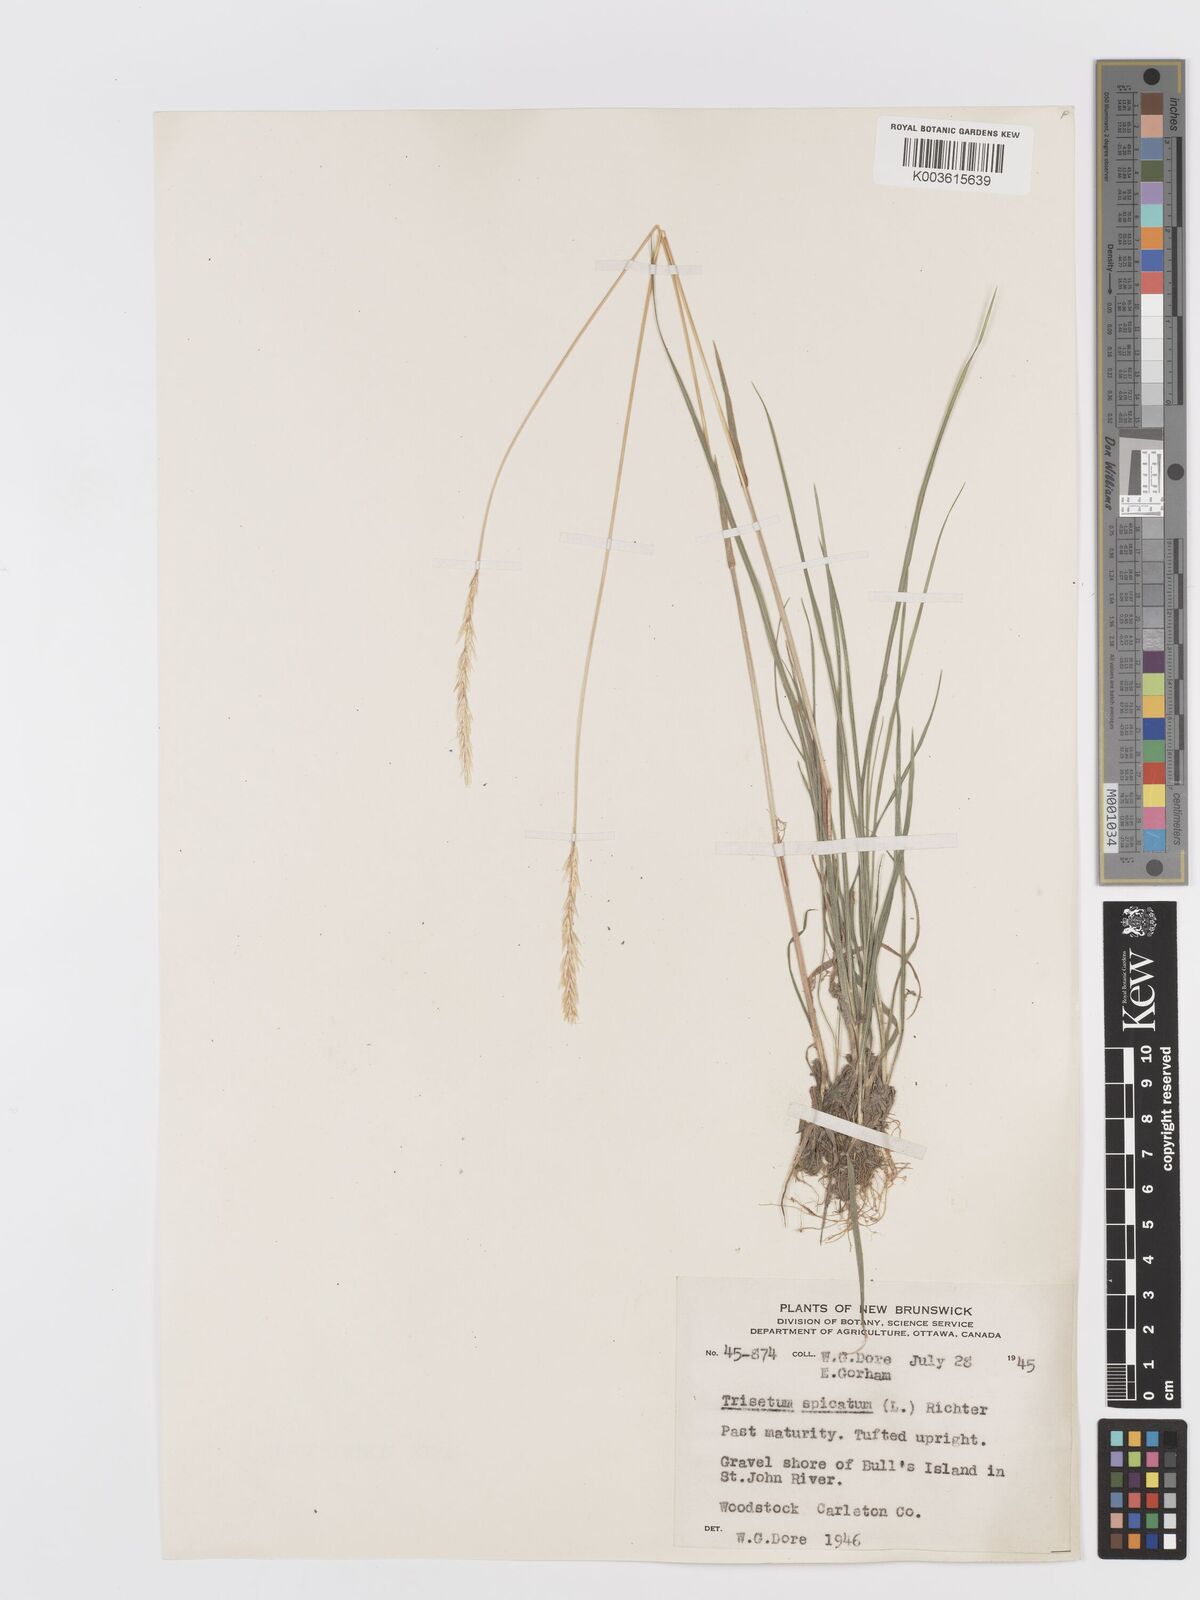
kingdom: Plantae
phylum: Tracheophyta
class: Liliopsida
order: Poales
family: Poaceae
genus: Koeleria
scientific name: Koeleria spicata
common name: Mountain trisetum
